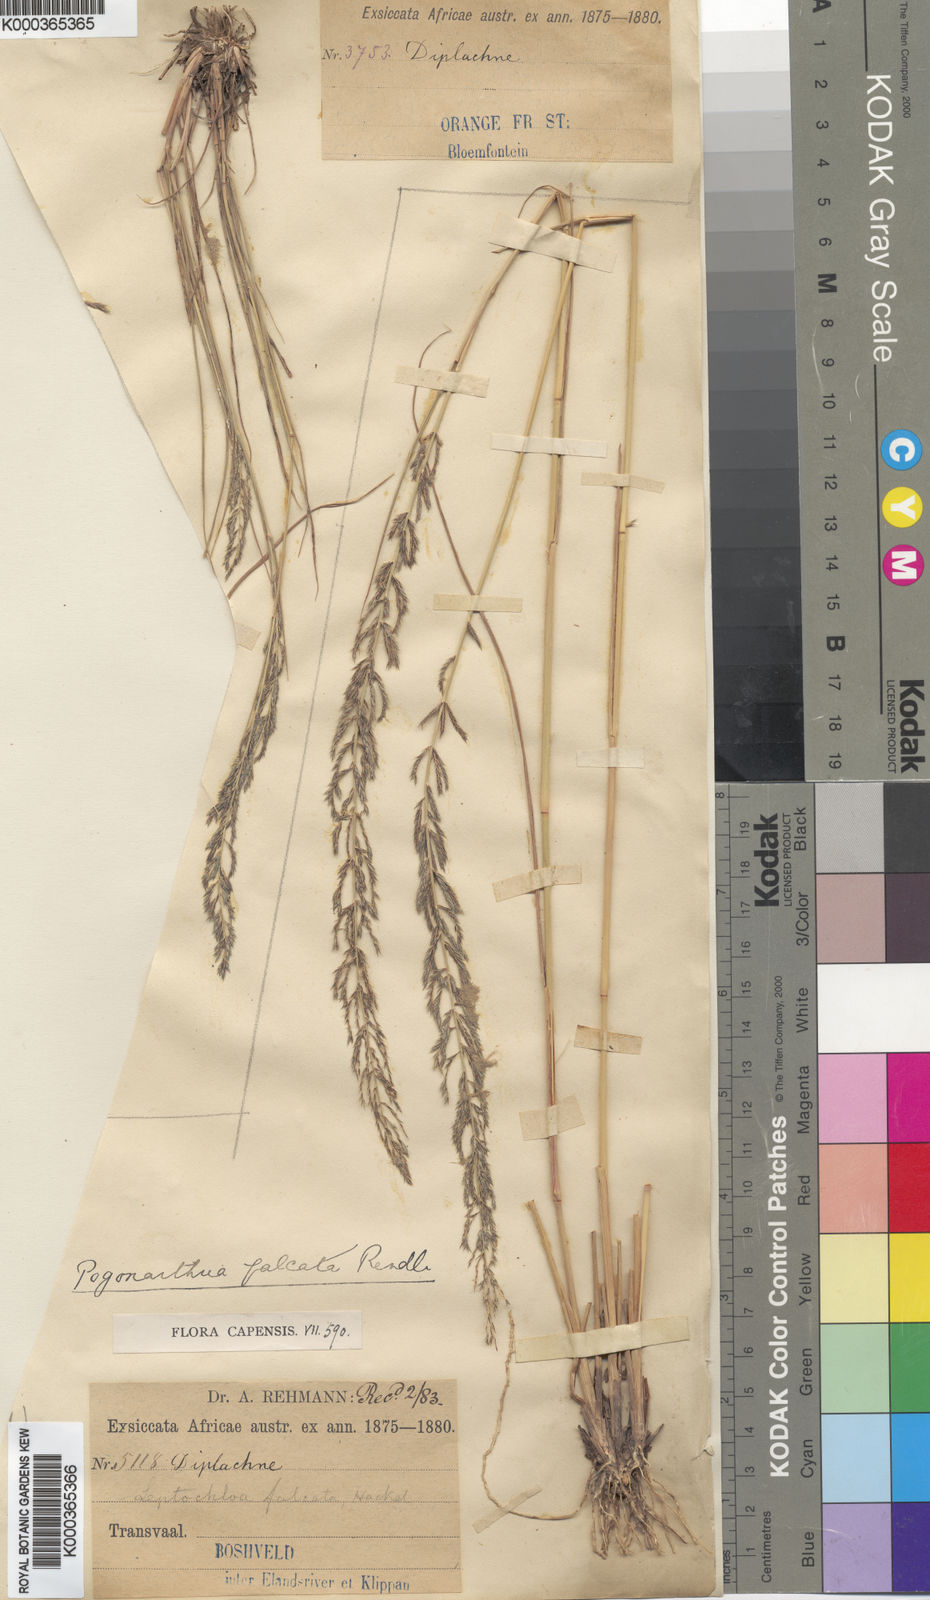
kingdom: Plantae
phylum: Tracheophyta
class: Liliopsida
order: Poales
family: Poaceae
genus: Pogonarthria
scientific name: Pogonarthria squarrosa
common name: Grass
